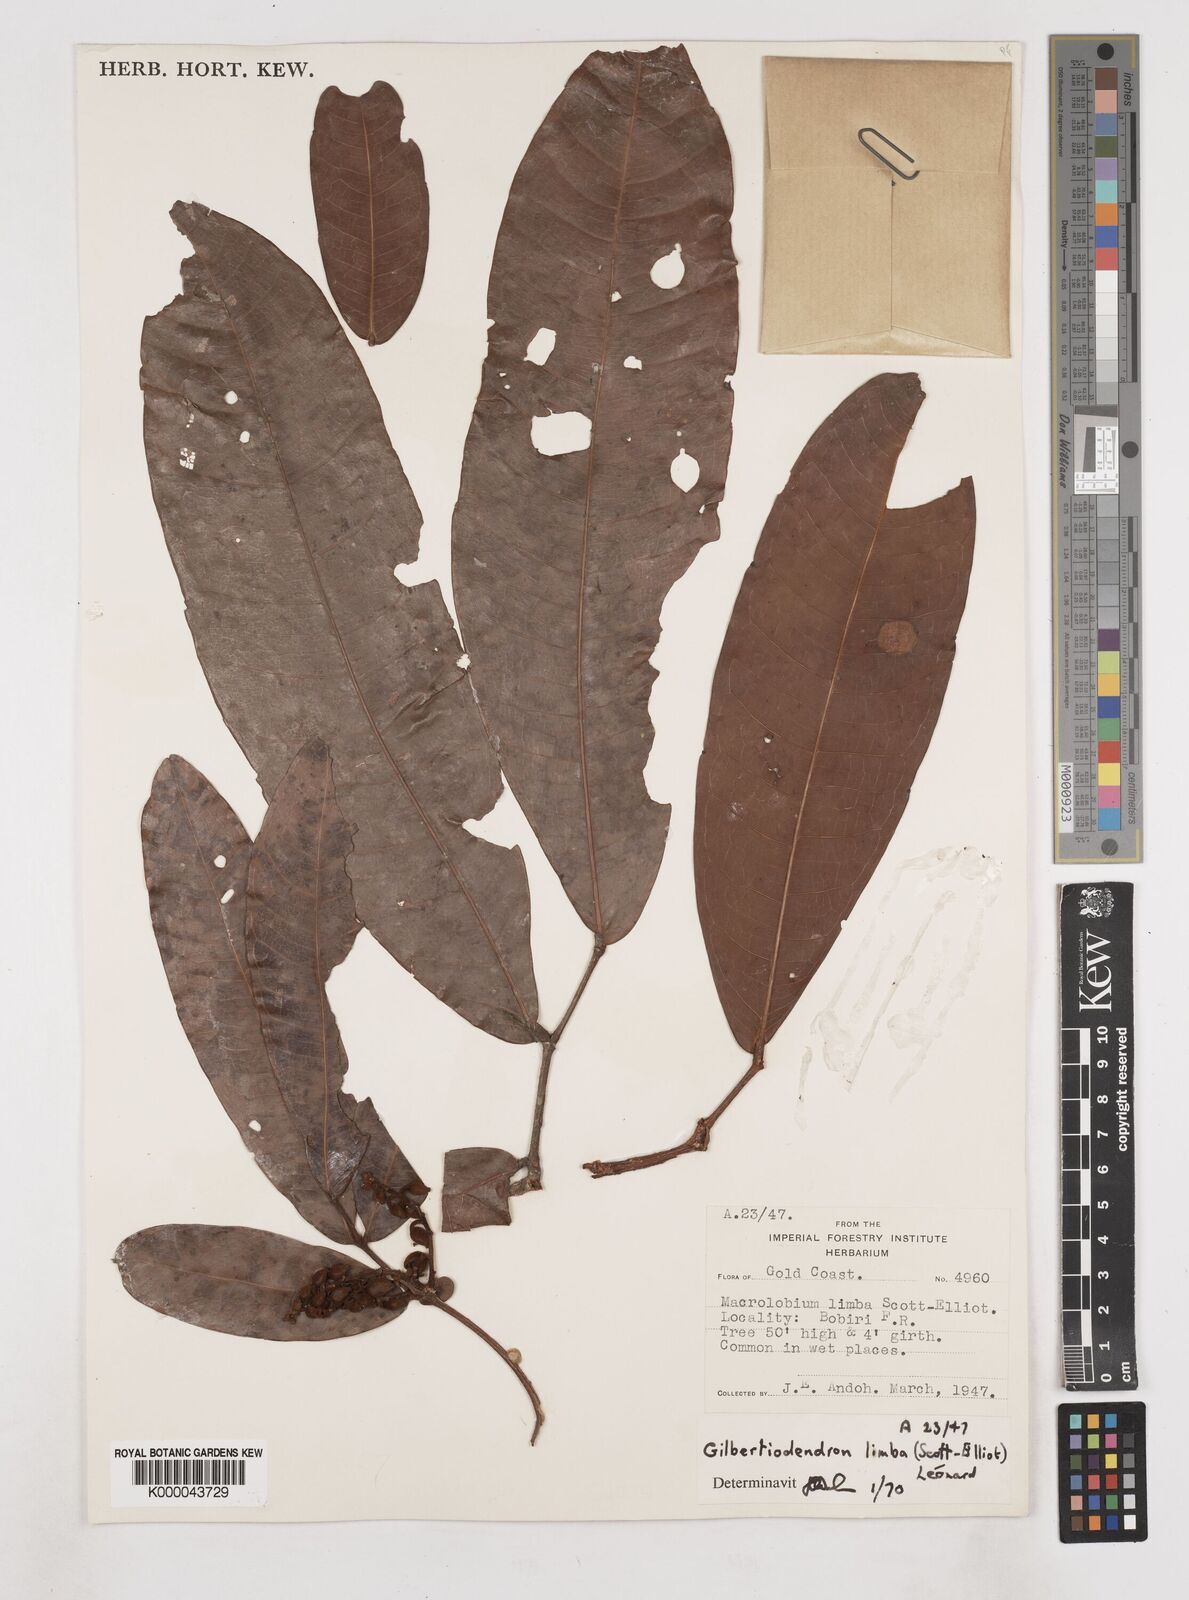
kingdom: Plantae
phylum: Tracheophyta
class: Magnoliopsida
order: Fabales
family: Fabaceae
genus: Gilbertiodendron
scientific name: Gilbertiodendron
